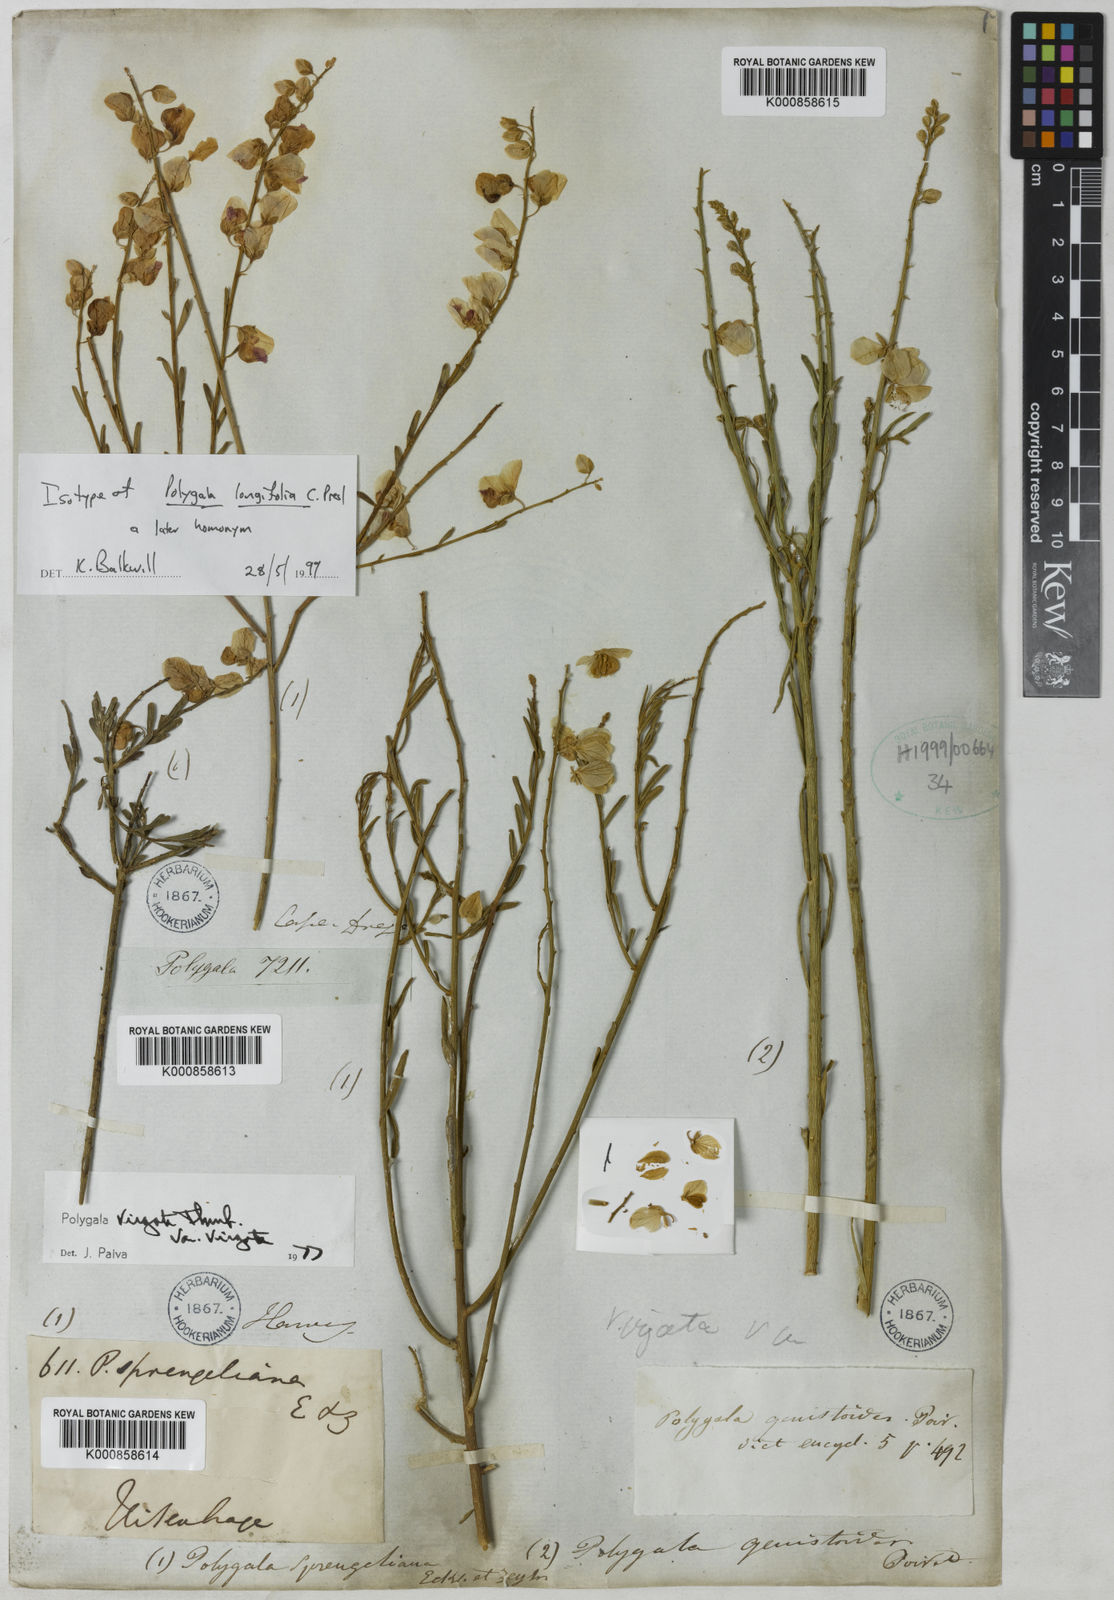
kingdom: Plantae
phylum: Tracheophyta
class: Magnoliopsida
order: Fabales
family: Polygalaceae
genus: Polygala
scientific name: Polygala virgata
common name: Milkwort
